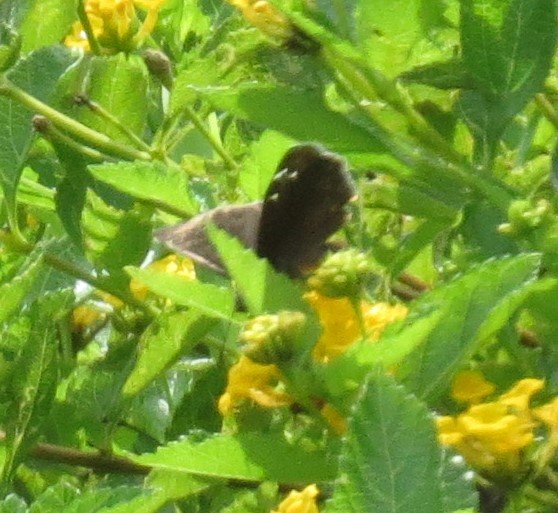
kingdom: Animalia
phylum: Arthropoda
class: Insecta
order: Lepidoptera
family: Hesperiidae
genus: Gesta
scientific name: Gesta
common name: Horace's Duskywing
